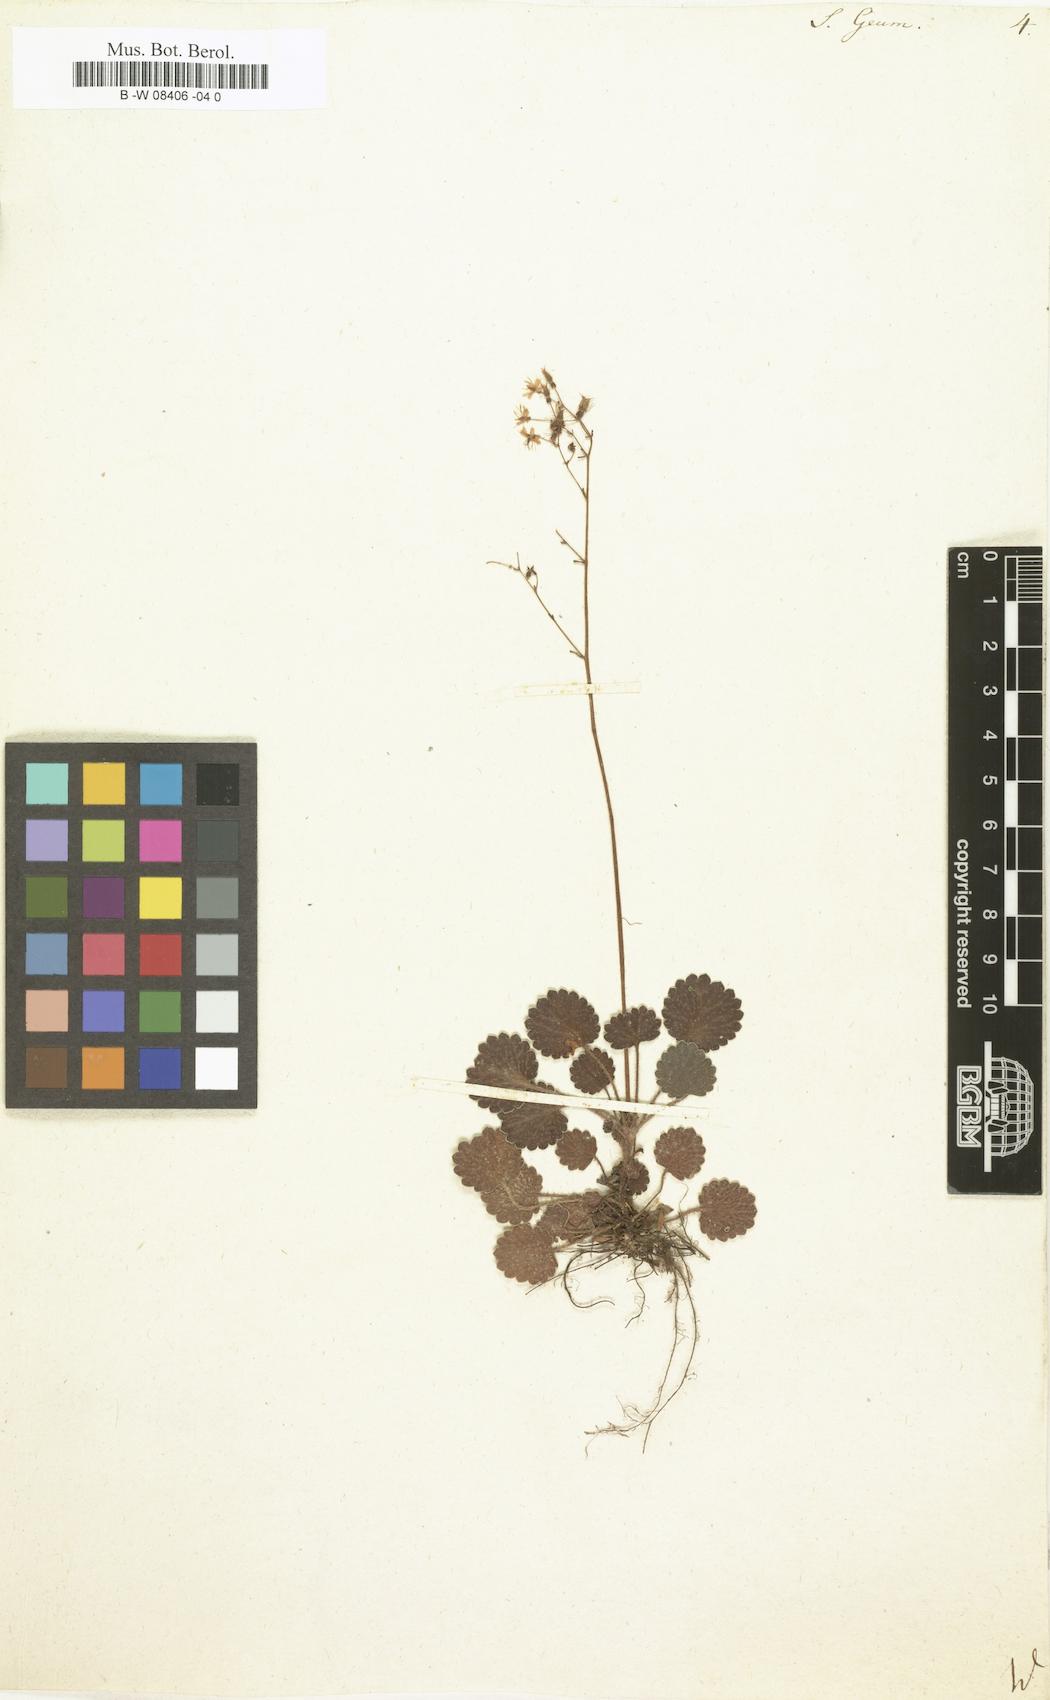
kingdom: Plantae
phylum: Tracheophyta
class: Magnoliopsida
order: Saxifragales
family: Saxifragaceae
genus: Saxifraga
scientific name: Saxifraga geum
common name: Geum saxifrage
